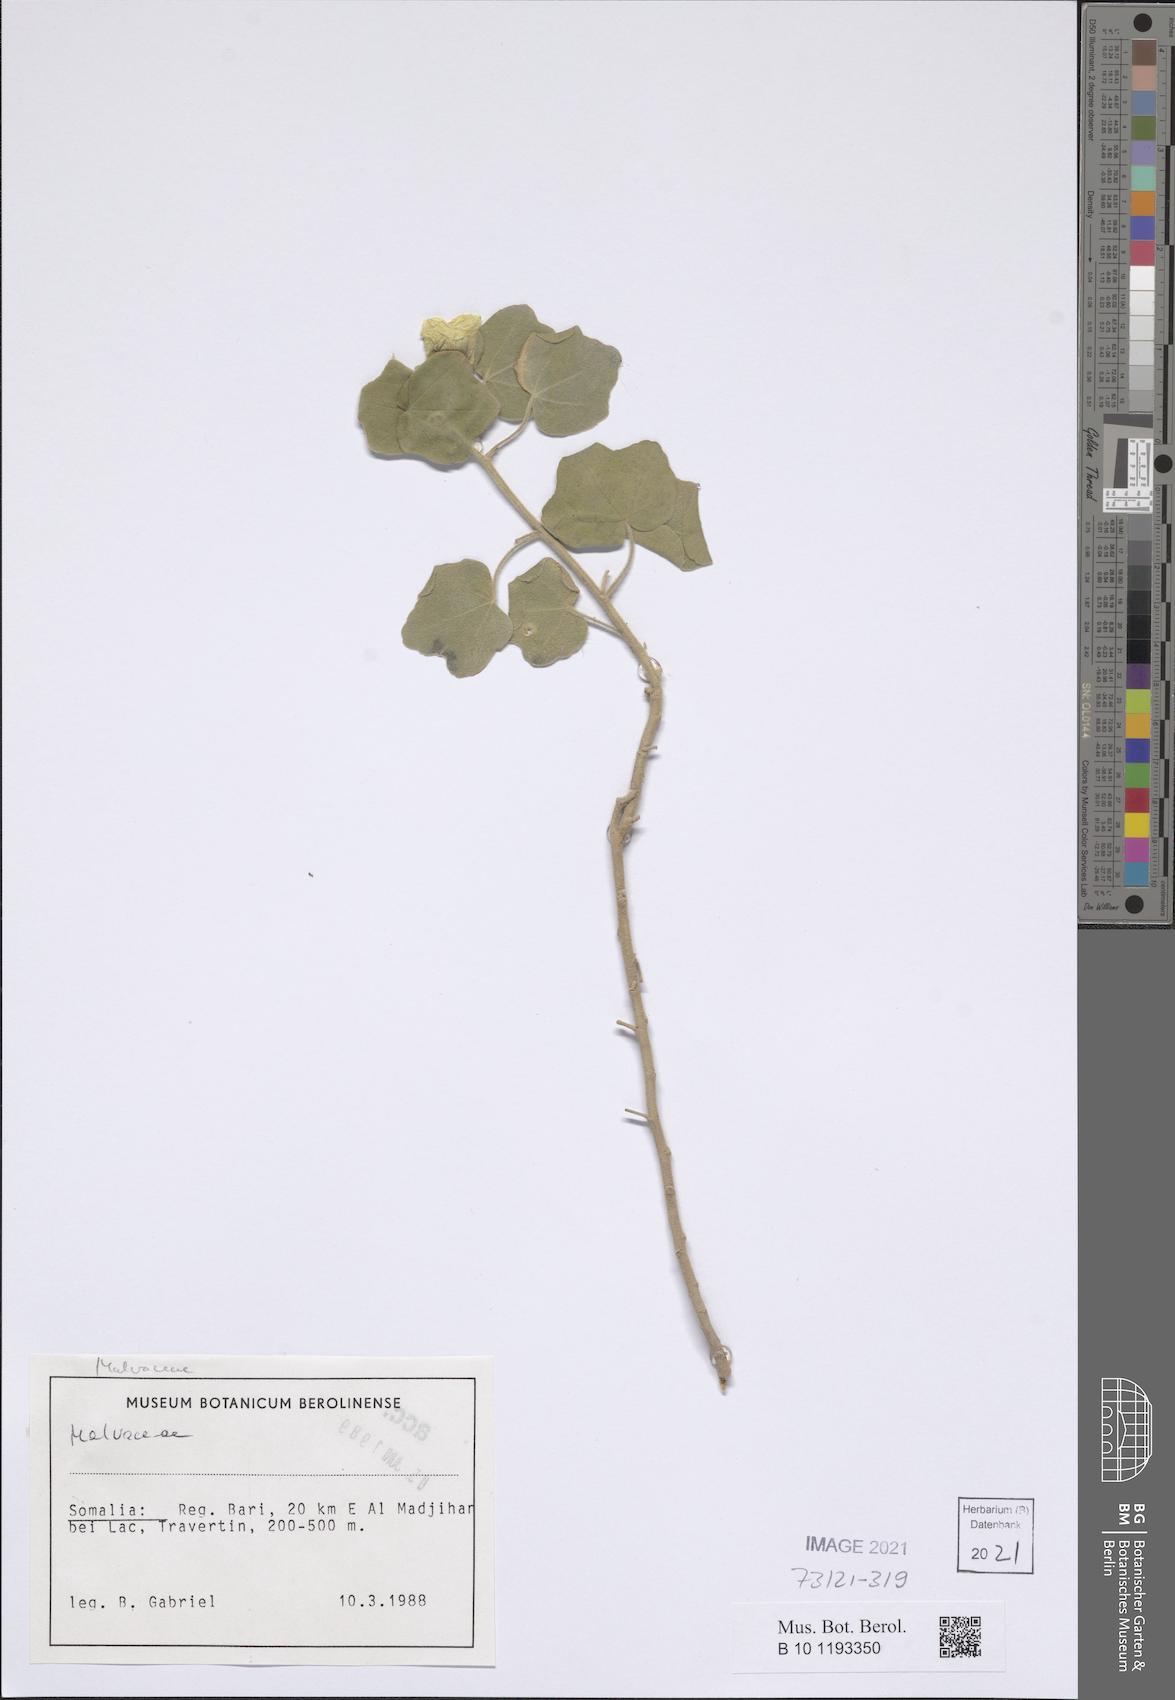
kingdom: Plantae
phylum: Tracheophyta
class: Magnoliopsida
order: Malvales
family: Malvaceae
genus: Senra
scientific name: Senra incana
